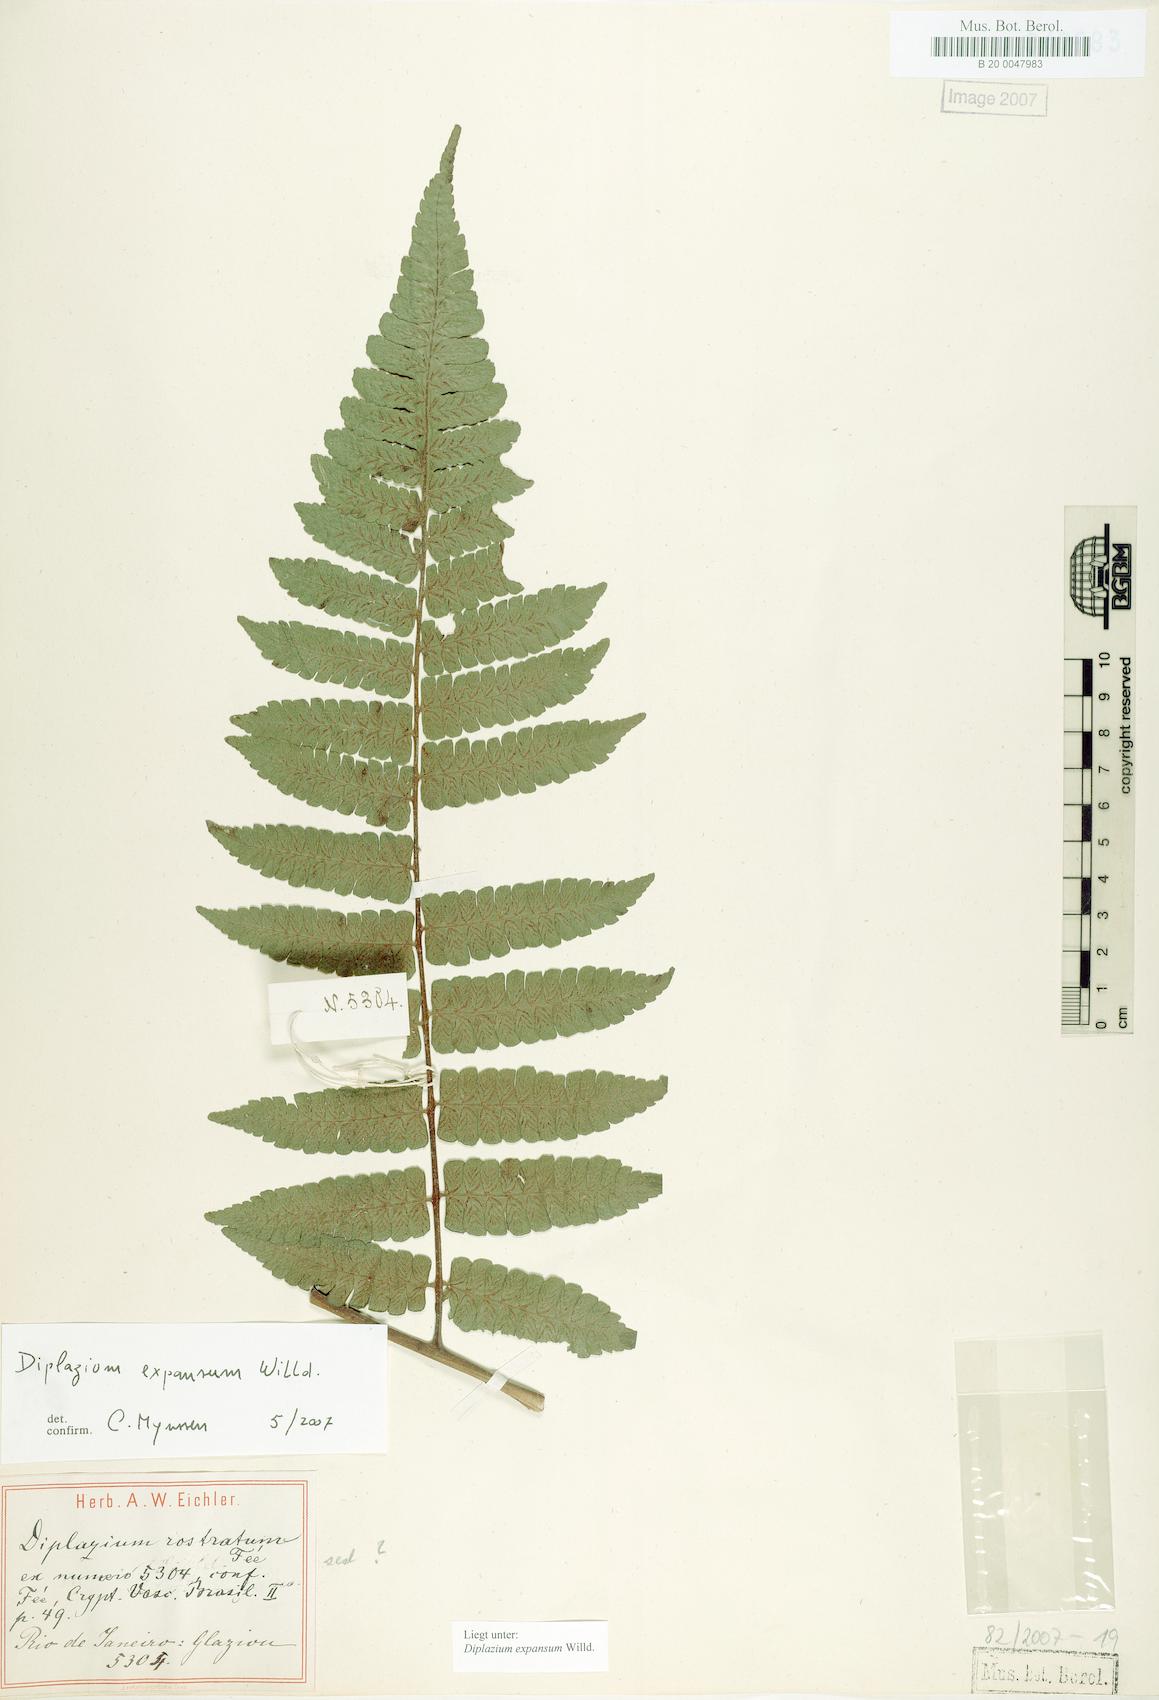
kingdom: Plantae
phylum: Tracheophyta
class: Polypodiopsida
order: Polypodiales
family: Athyriaceae
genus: Diplazium
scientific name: Diplazium expansum
